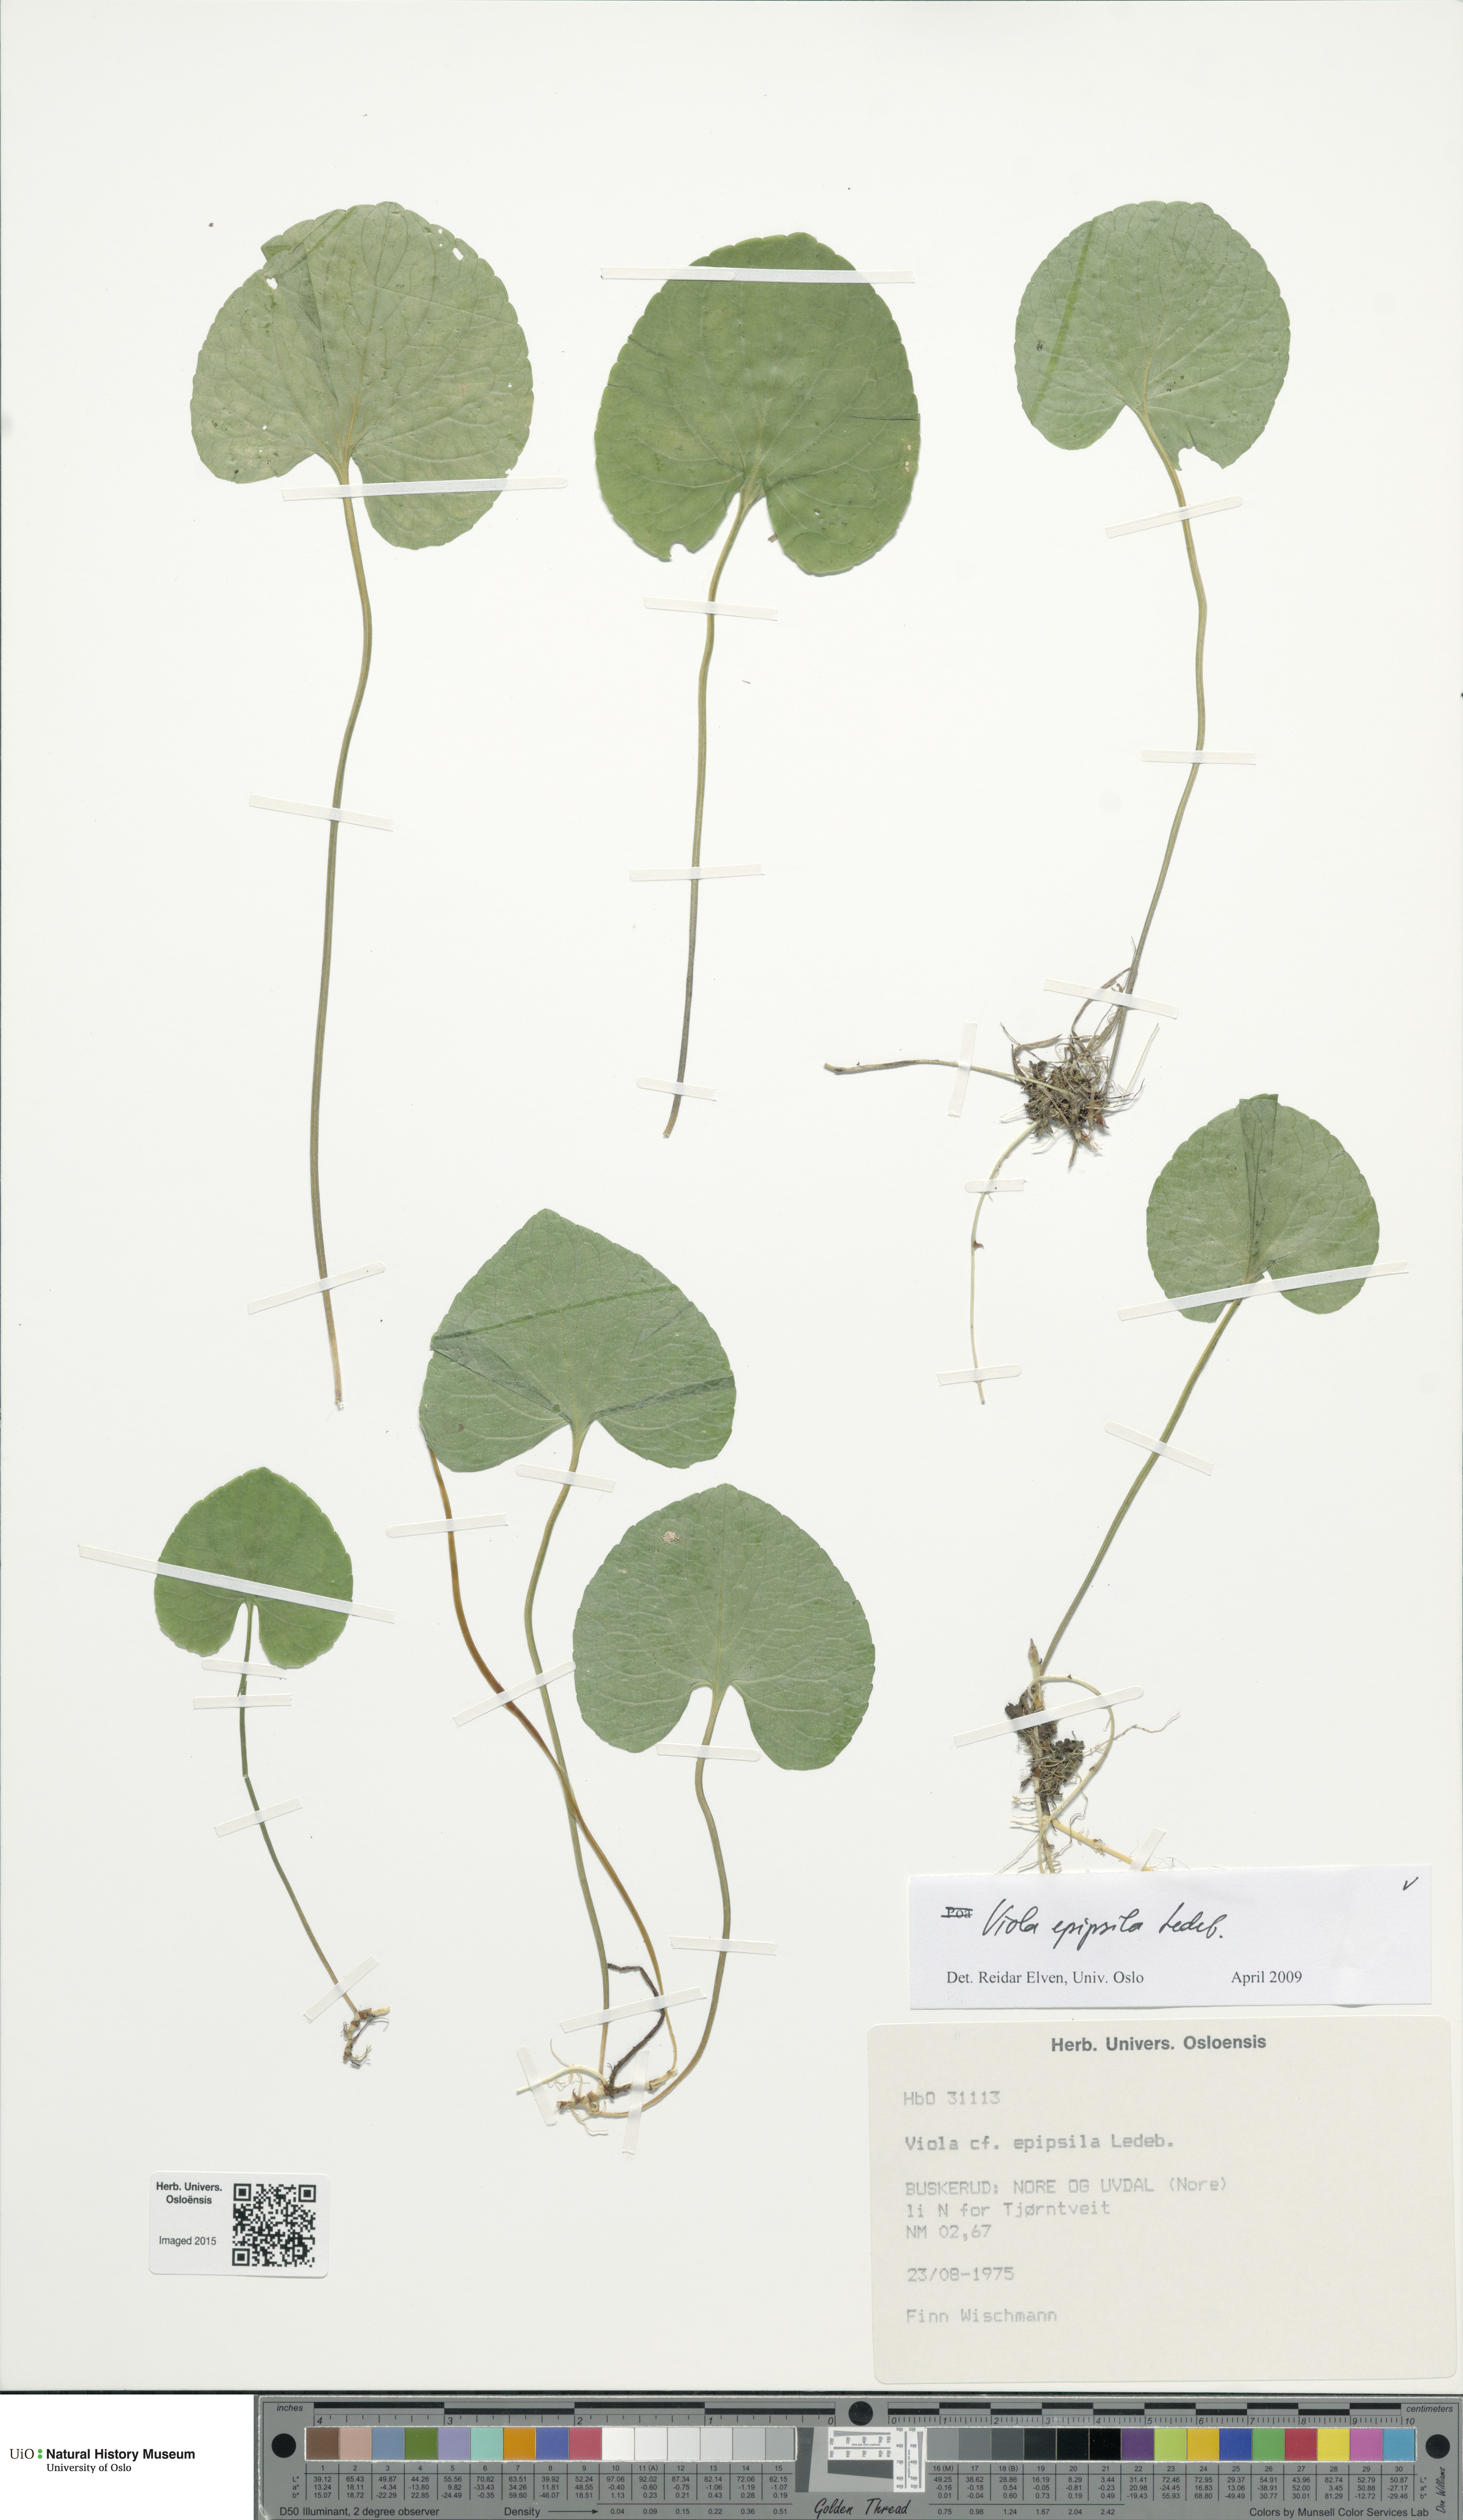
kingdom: Plantae
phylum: Tracheophyta
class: Magnoliopsida
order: Malpighiales
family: Violaceae
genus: Viola
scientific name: Viola epipsila
